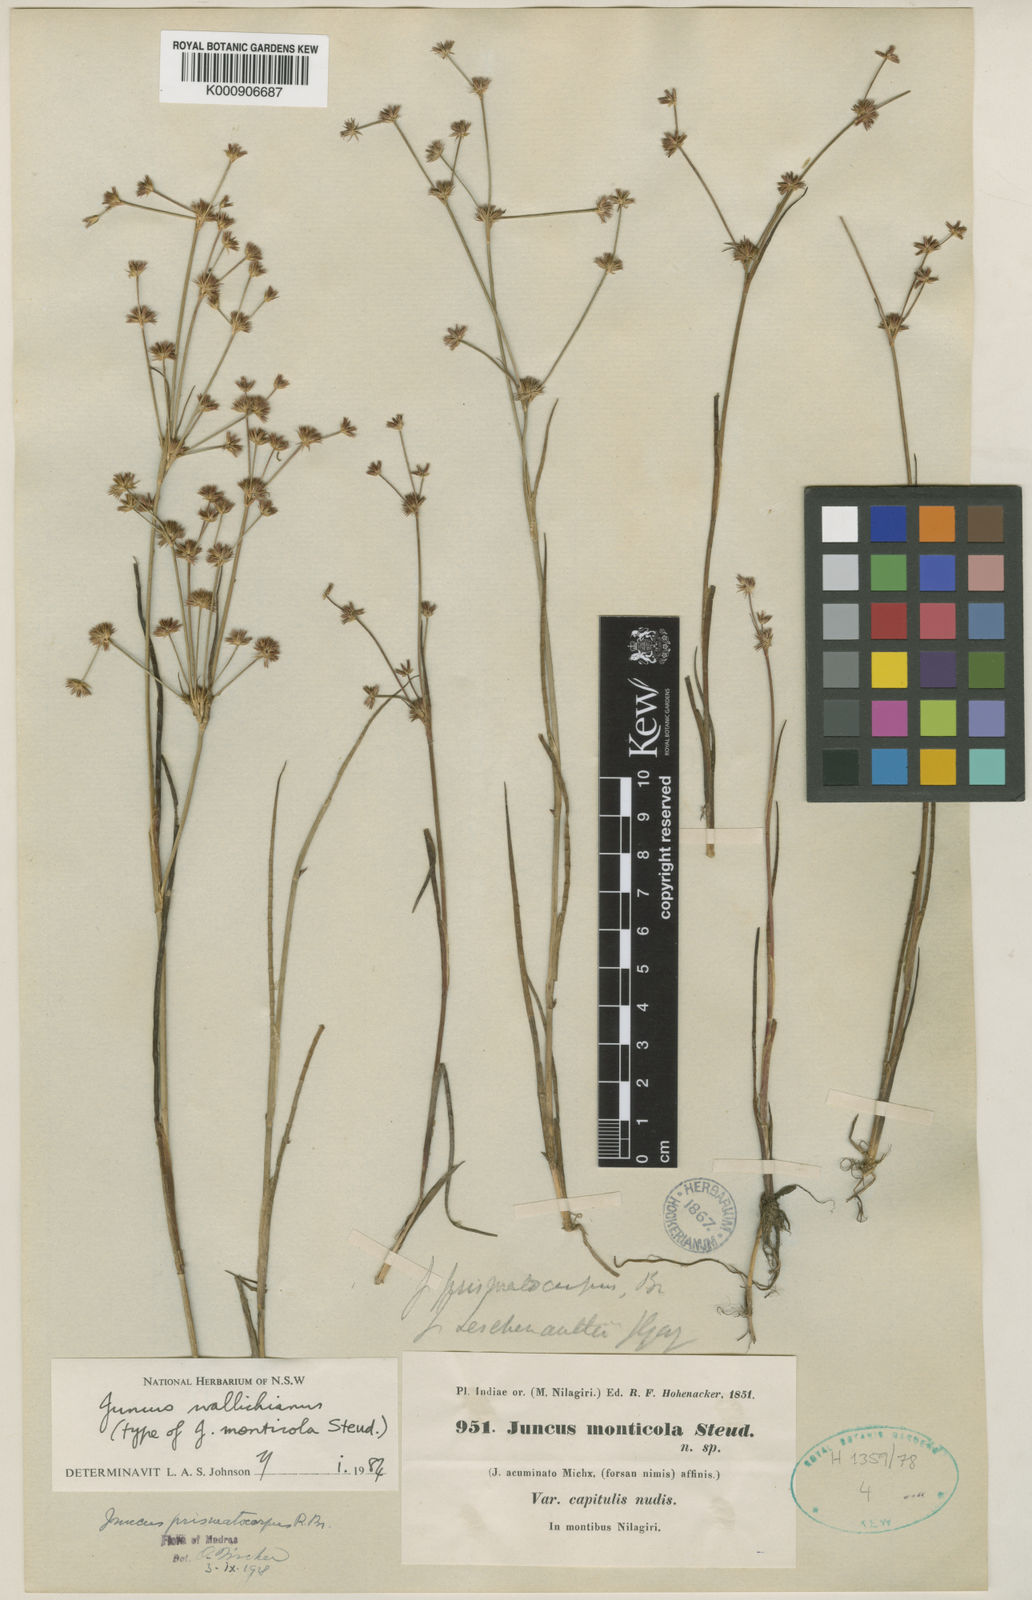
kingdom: Plantae
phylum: Tracheophyta
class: Liliopsida
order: Poales
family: Juncaceae
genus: Juncus
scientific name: Juncus wallichianus
